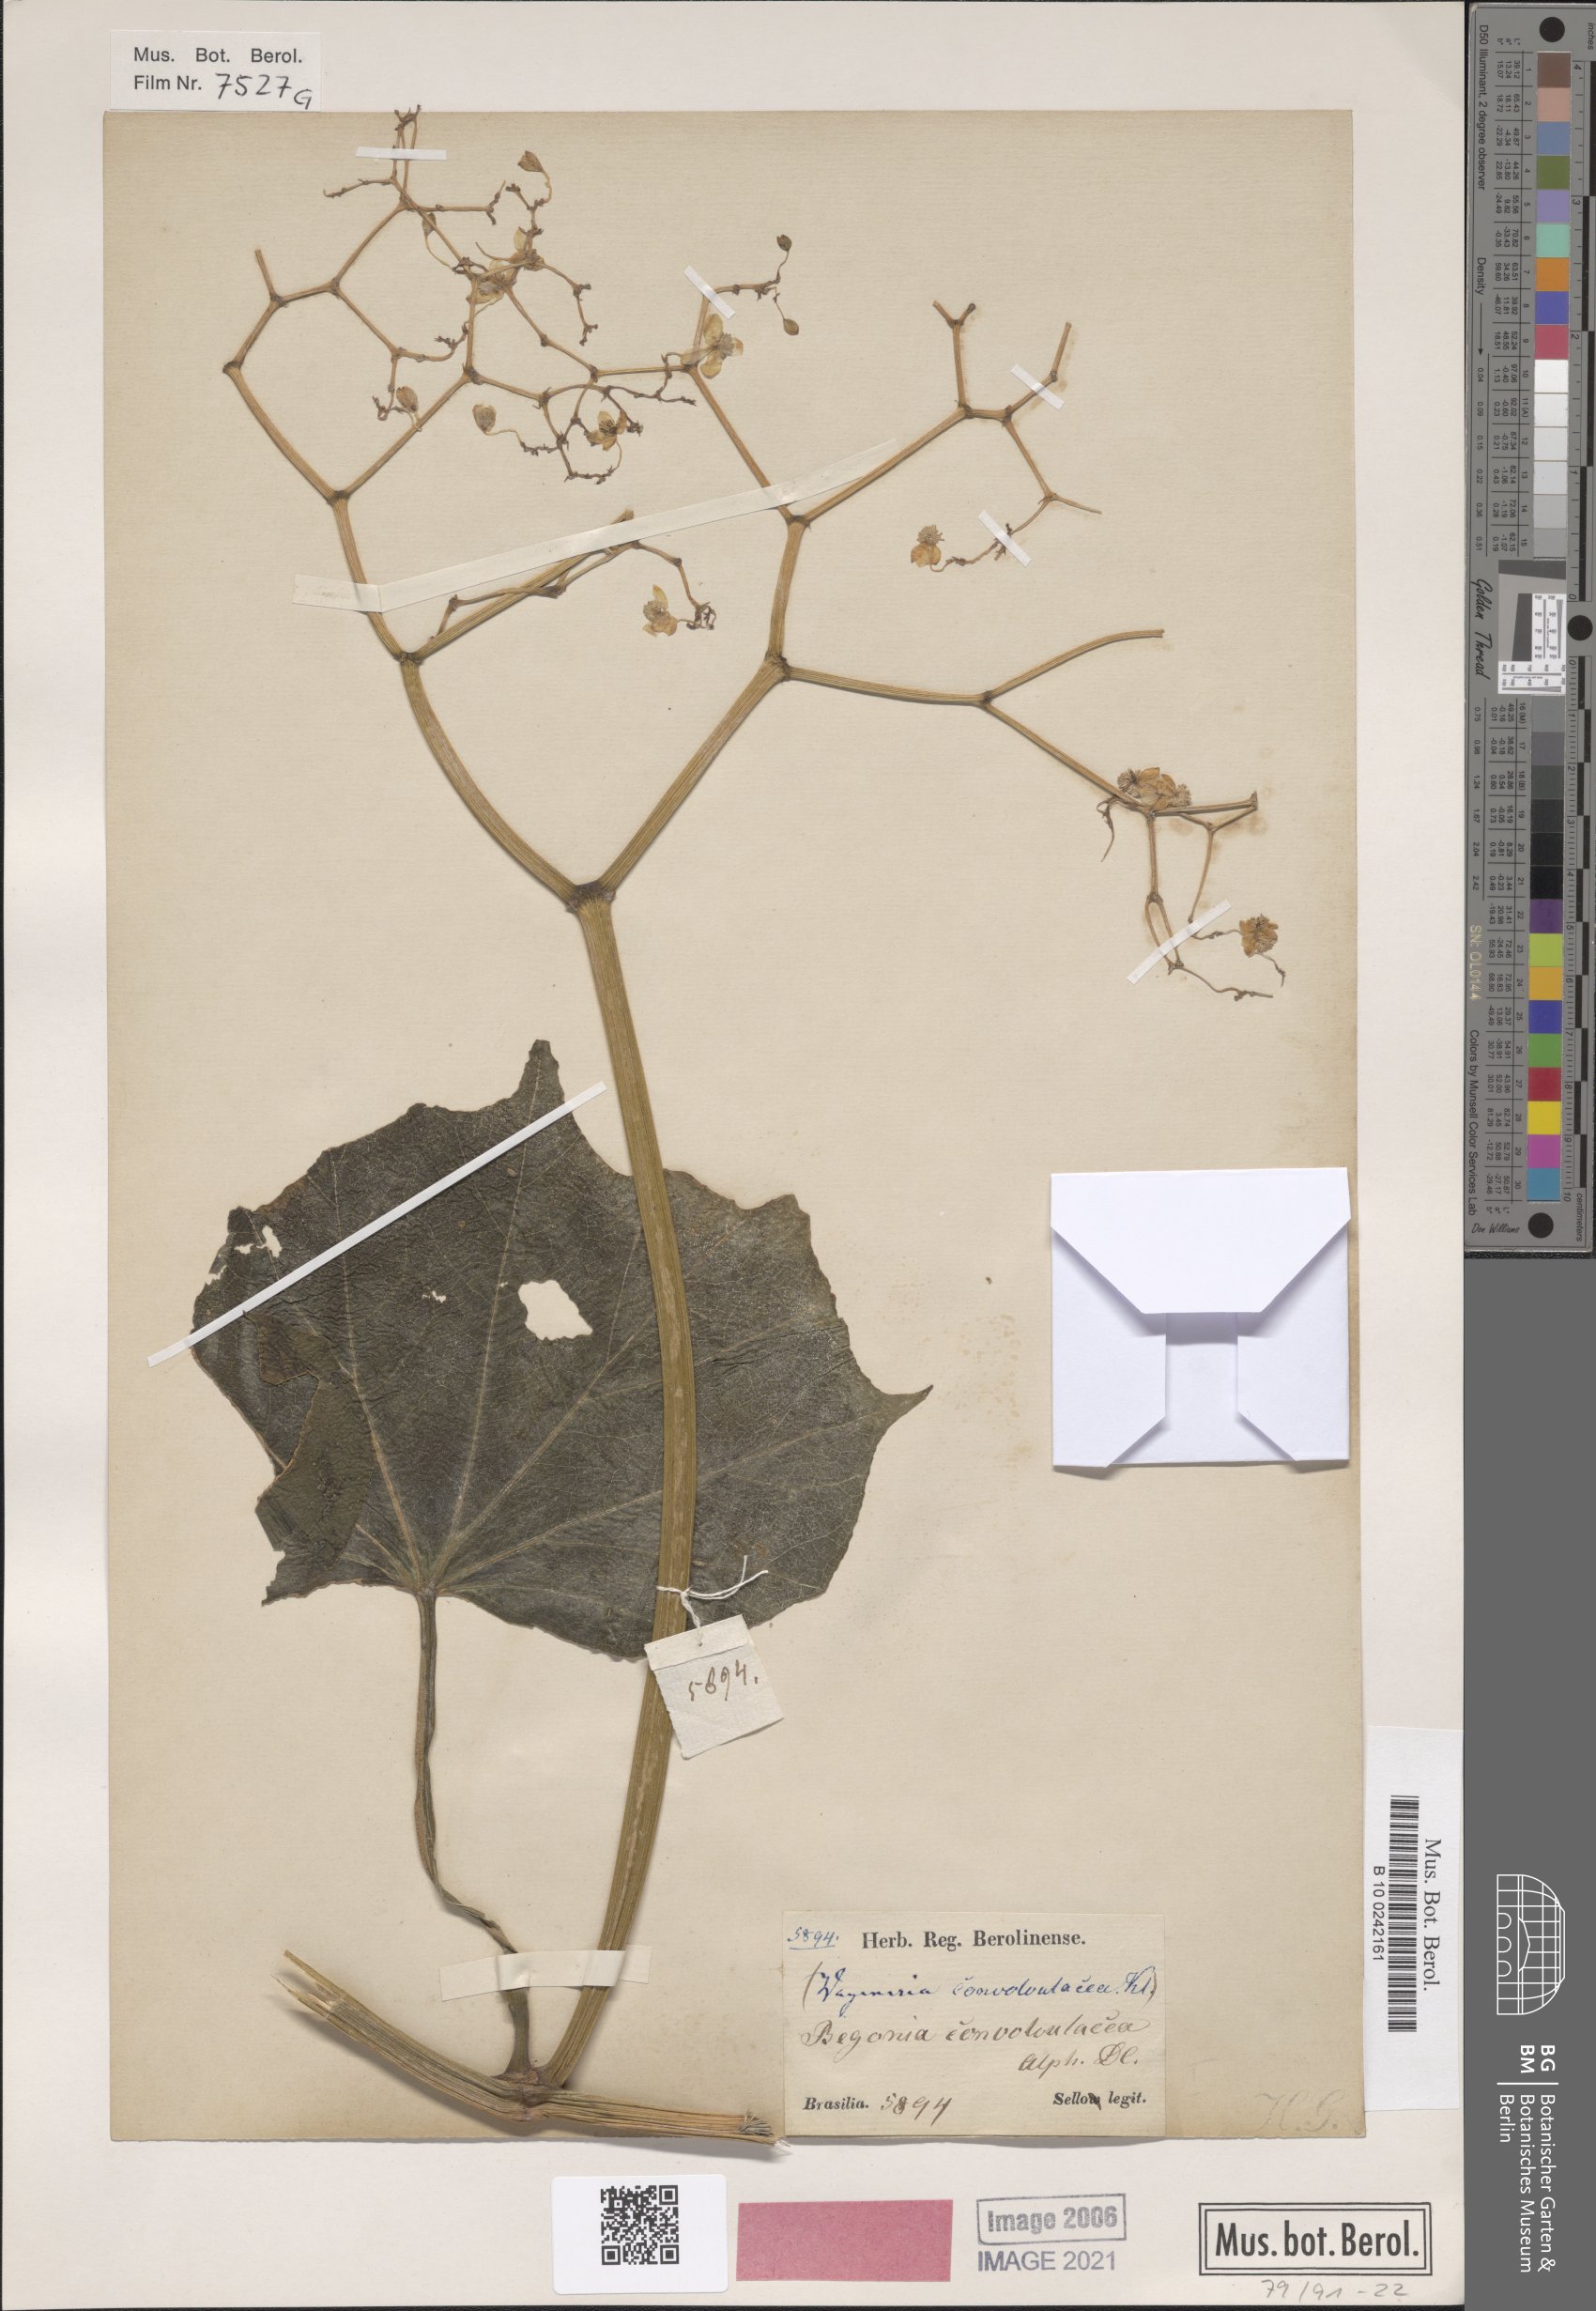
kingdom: Plantae
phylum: Tracheophyta
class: Magnoliopsida
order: Cucurbitales
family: Begoniaceae
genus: Begonia
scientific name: Begonia convolvulacea
